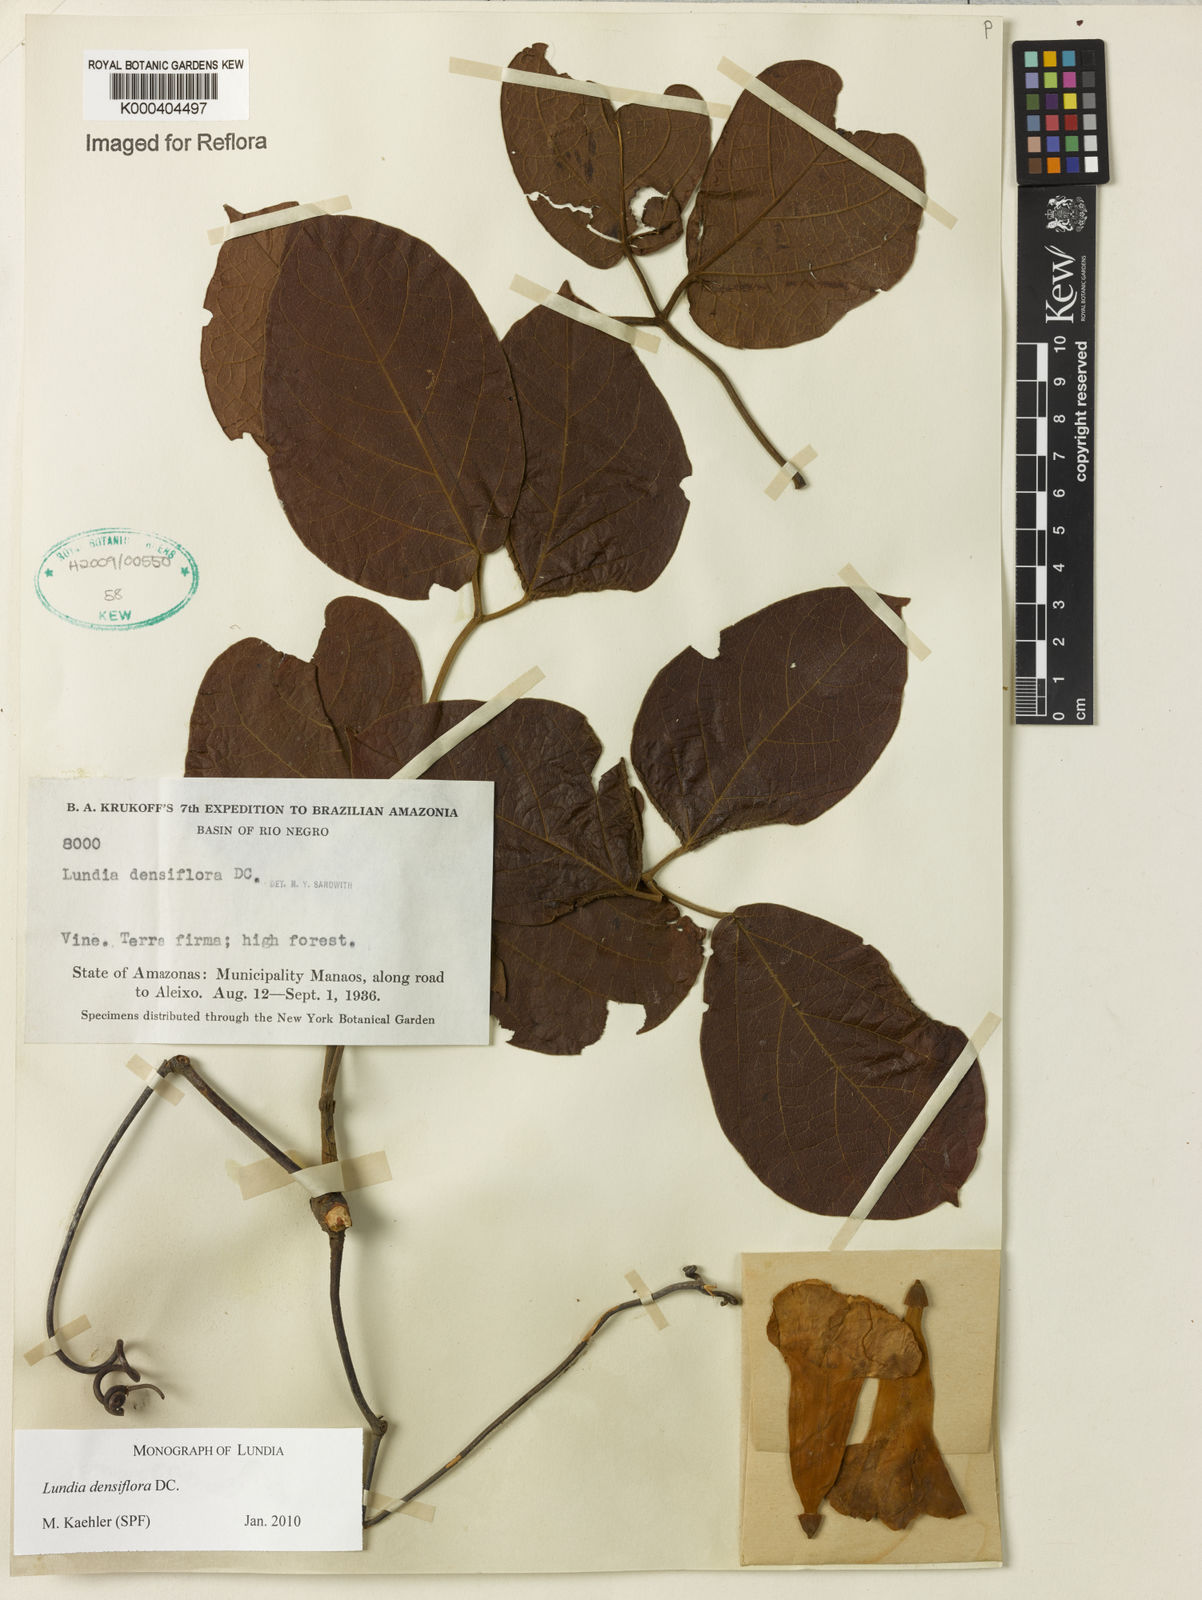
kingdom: Plantae
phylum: Tracheophyta
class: Magnoliopsida
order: Lamiales
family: Bignoniaceae
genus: Lundia
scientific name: Lundia densiflora
